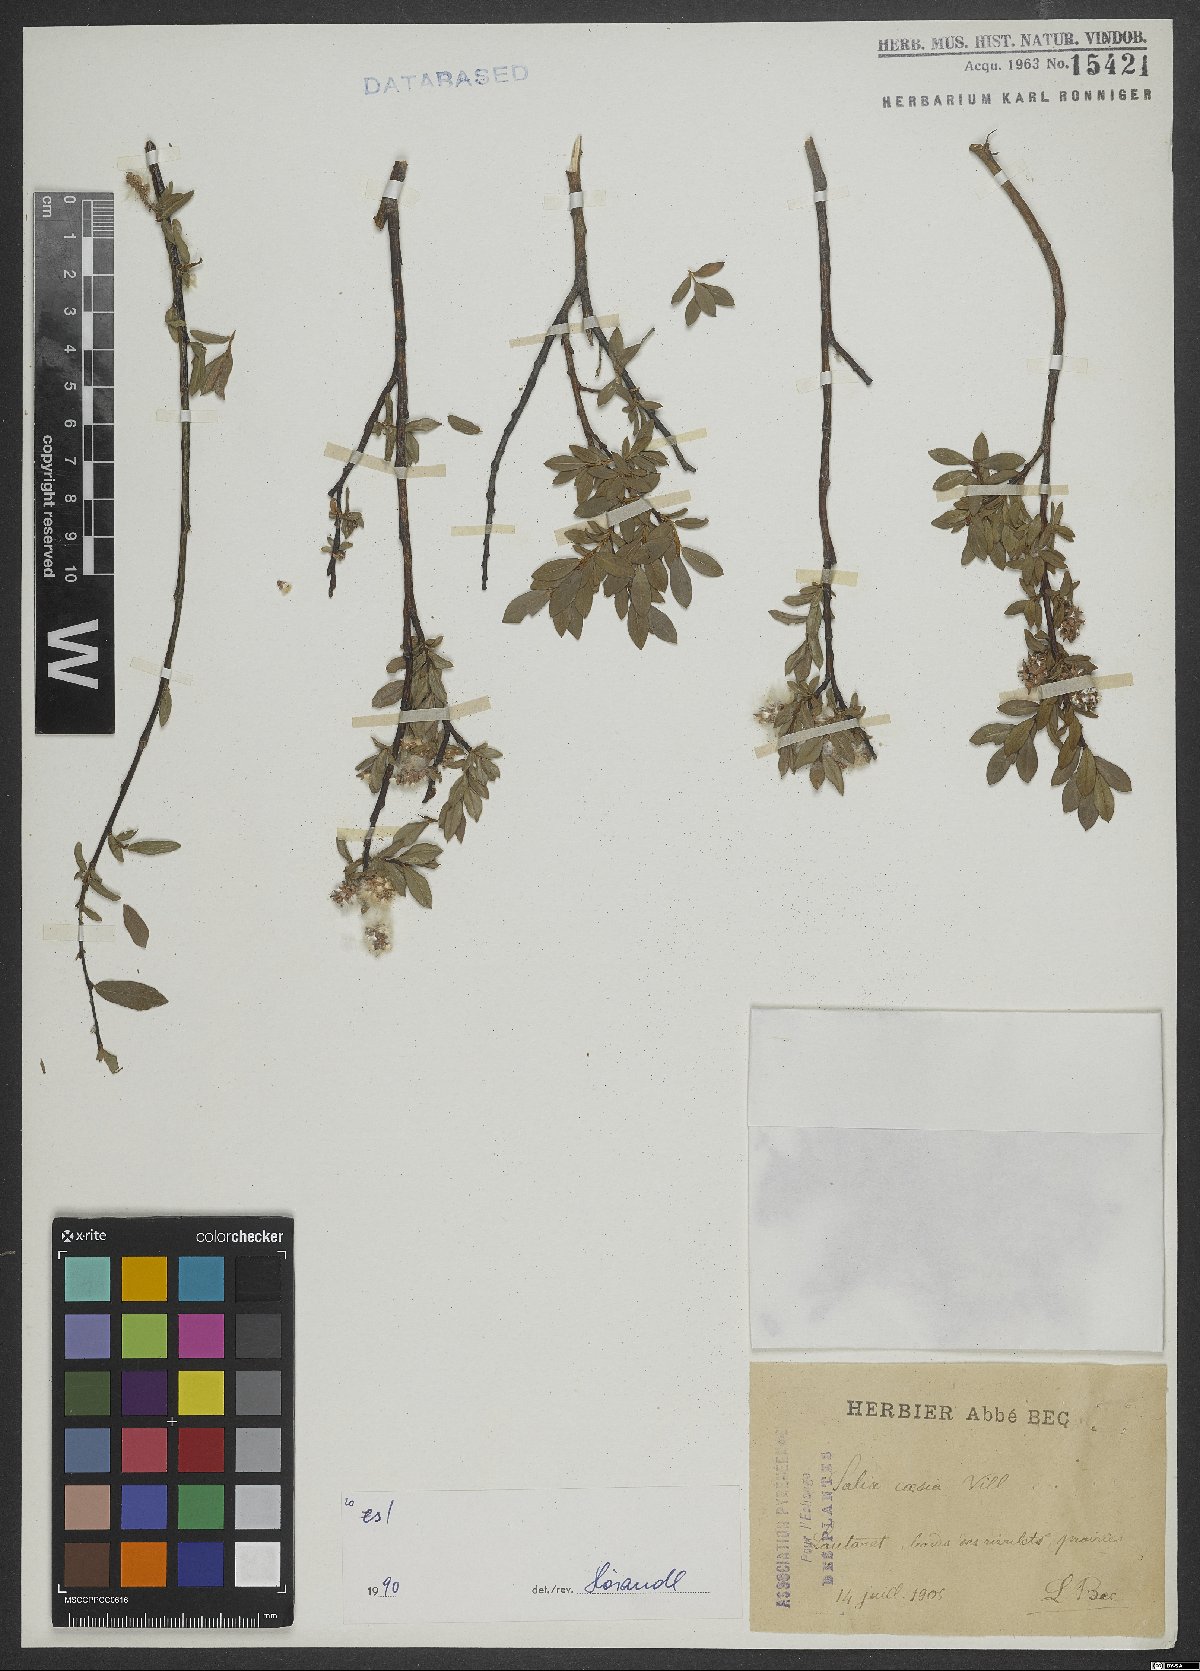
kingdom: Plantae
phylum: Tracheophyta
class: Magnoliopsida
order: Malpighiales
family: Salicaceae
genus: Salix
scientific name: Salix caesia
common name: Blue willow
